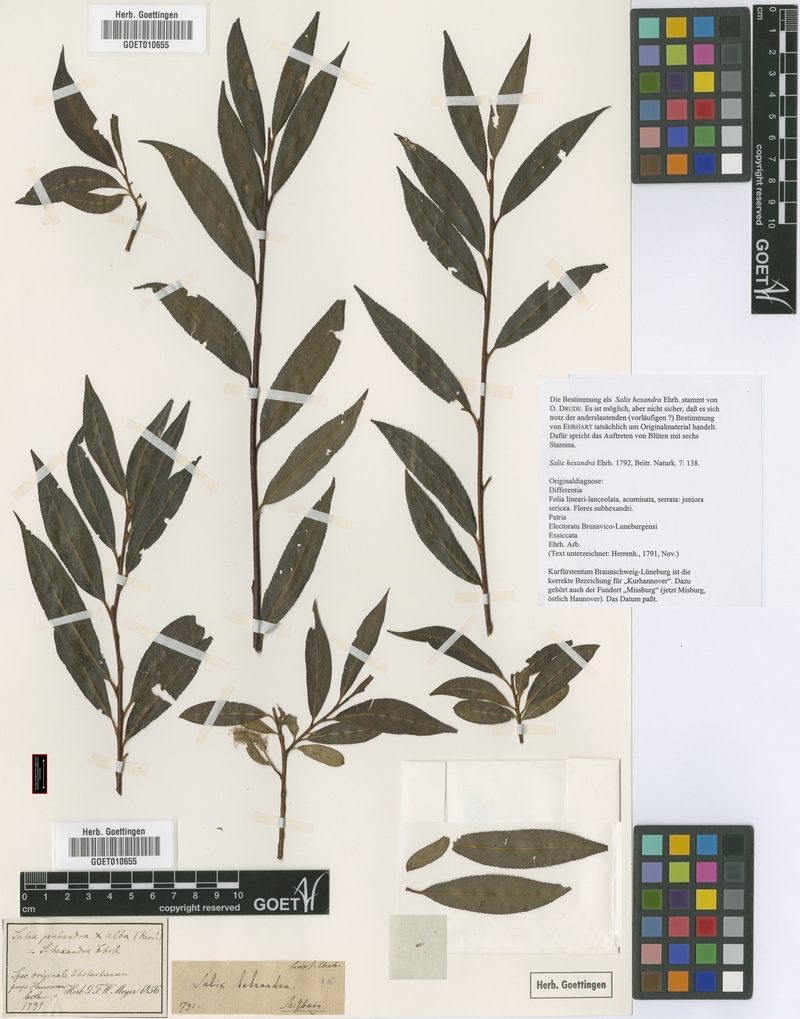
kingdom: Plantae
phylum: Tracheophyta
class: Magnoliopsida
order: Malpighiales
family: Salicaceae
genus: Salix
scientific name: Salix hexandra
